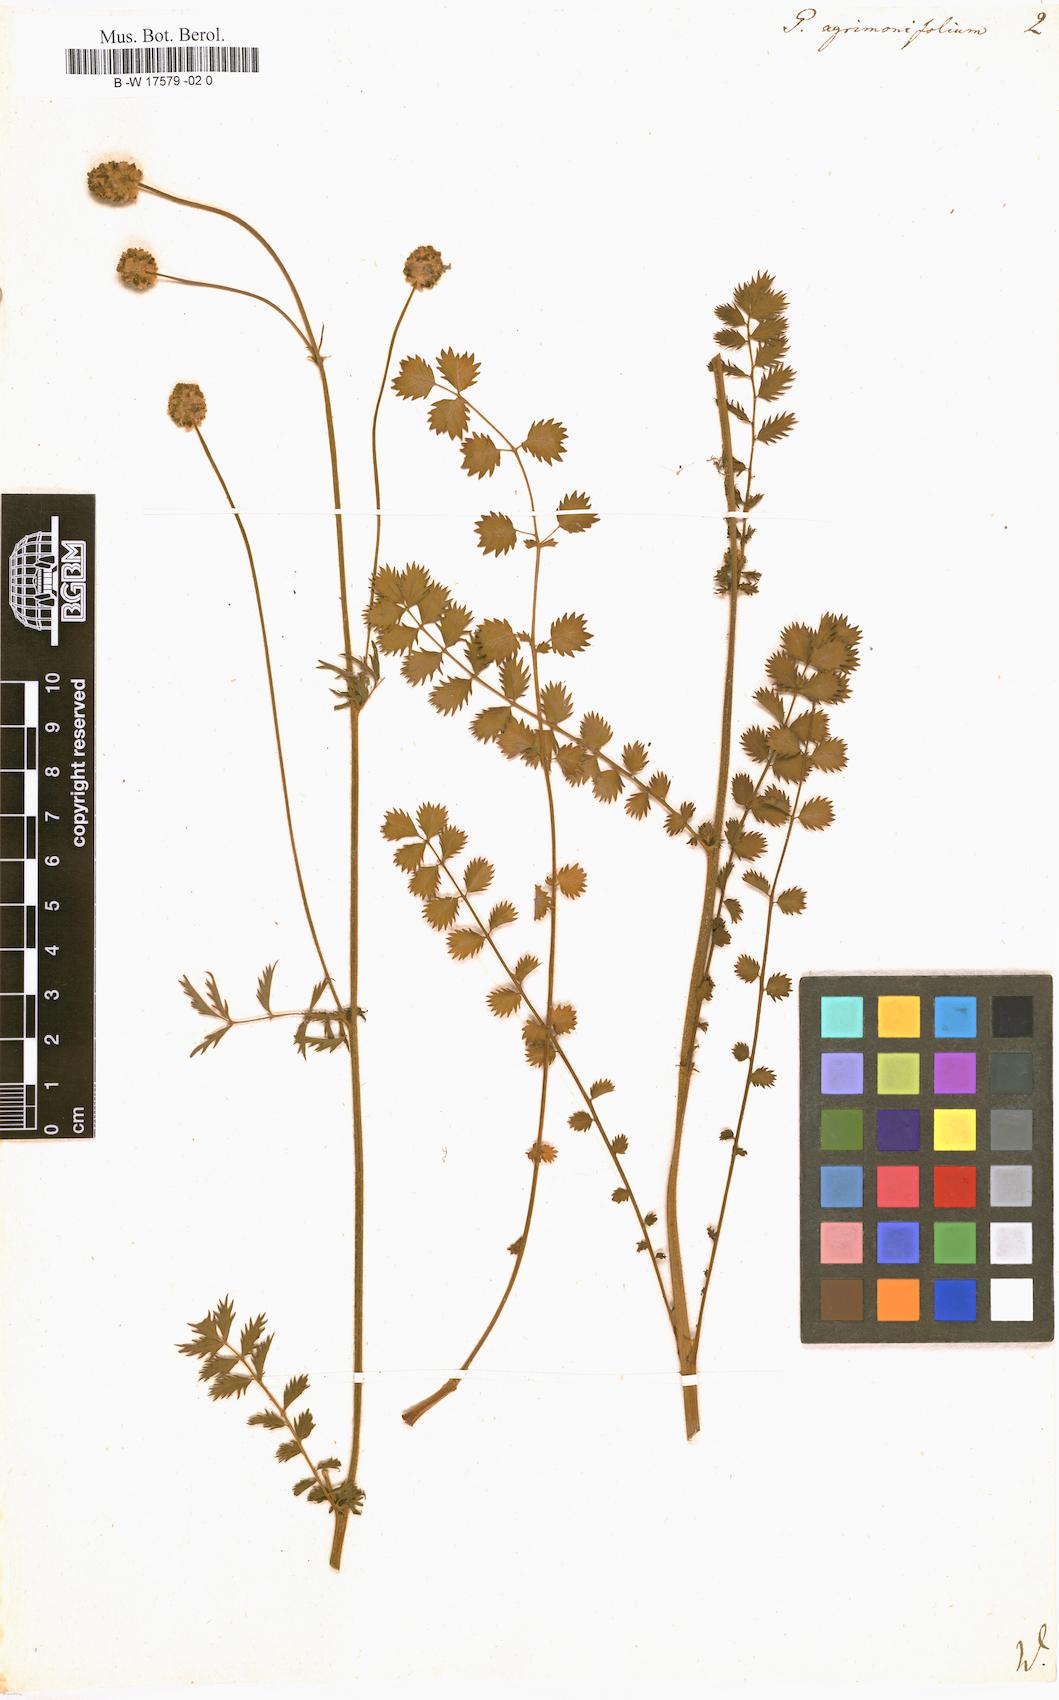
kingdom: Plantae
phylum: Tracheophyta
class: Magnoliopsida
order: Rosales
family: Rosaceae
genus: Poterium
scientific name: Poterium hybridum
